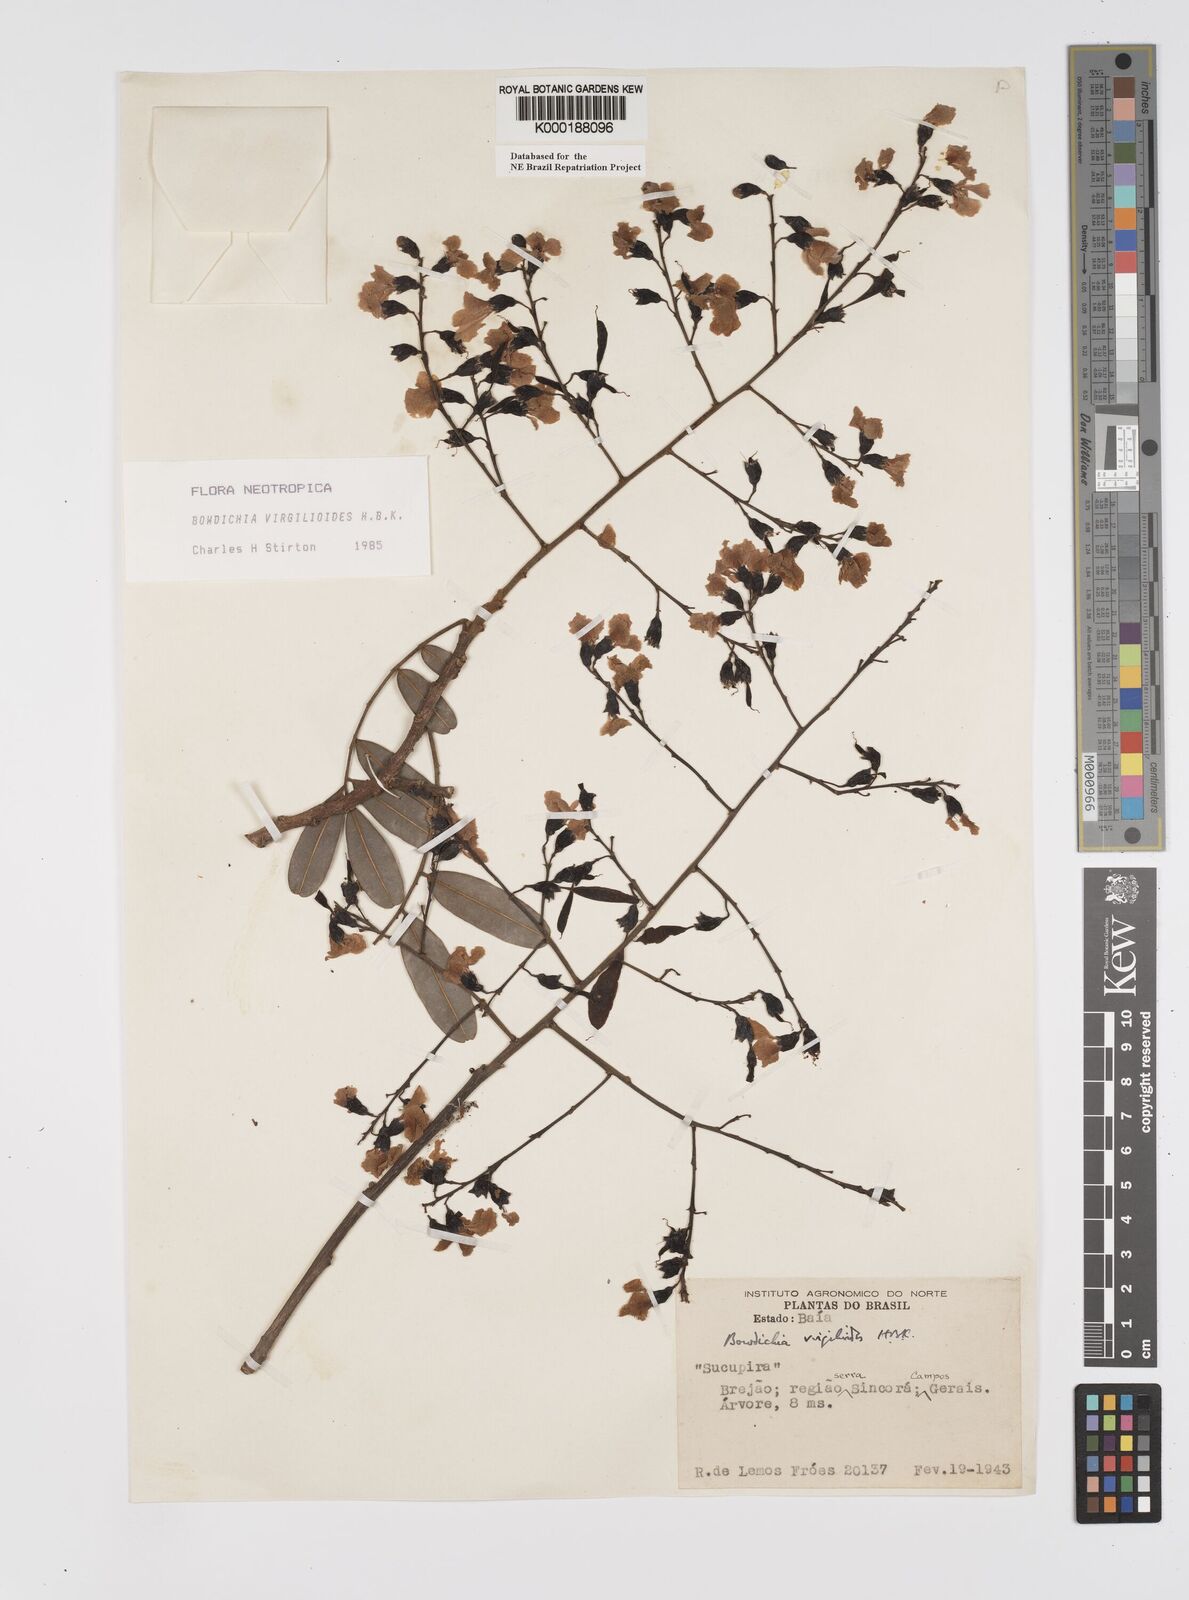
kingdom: Plantae
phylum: Tracheophyta
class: Magnoliopsida
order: Fabales
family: Fabaceae
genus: Bowdichia
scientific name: Bowdichia virgilioides
